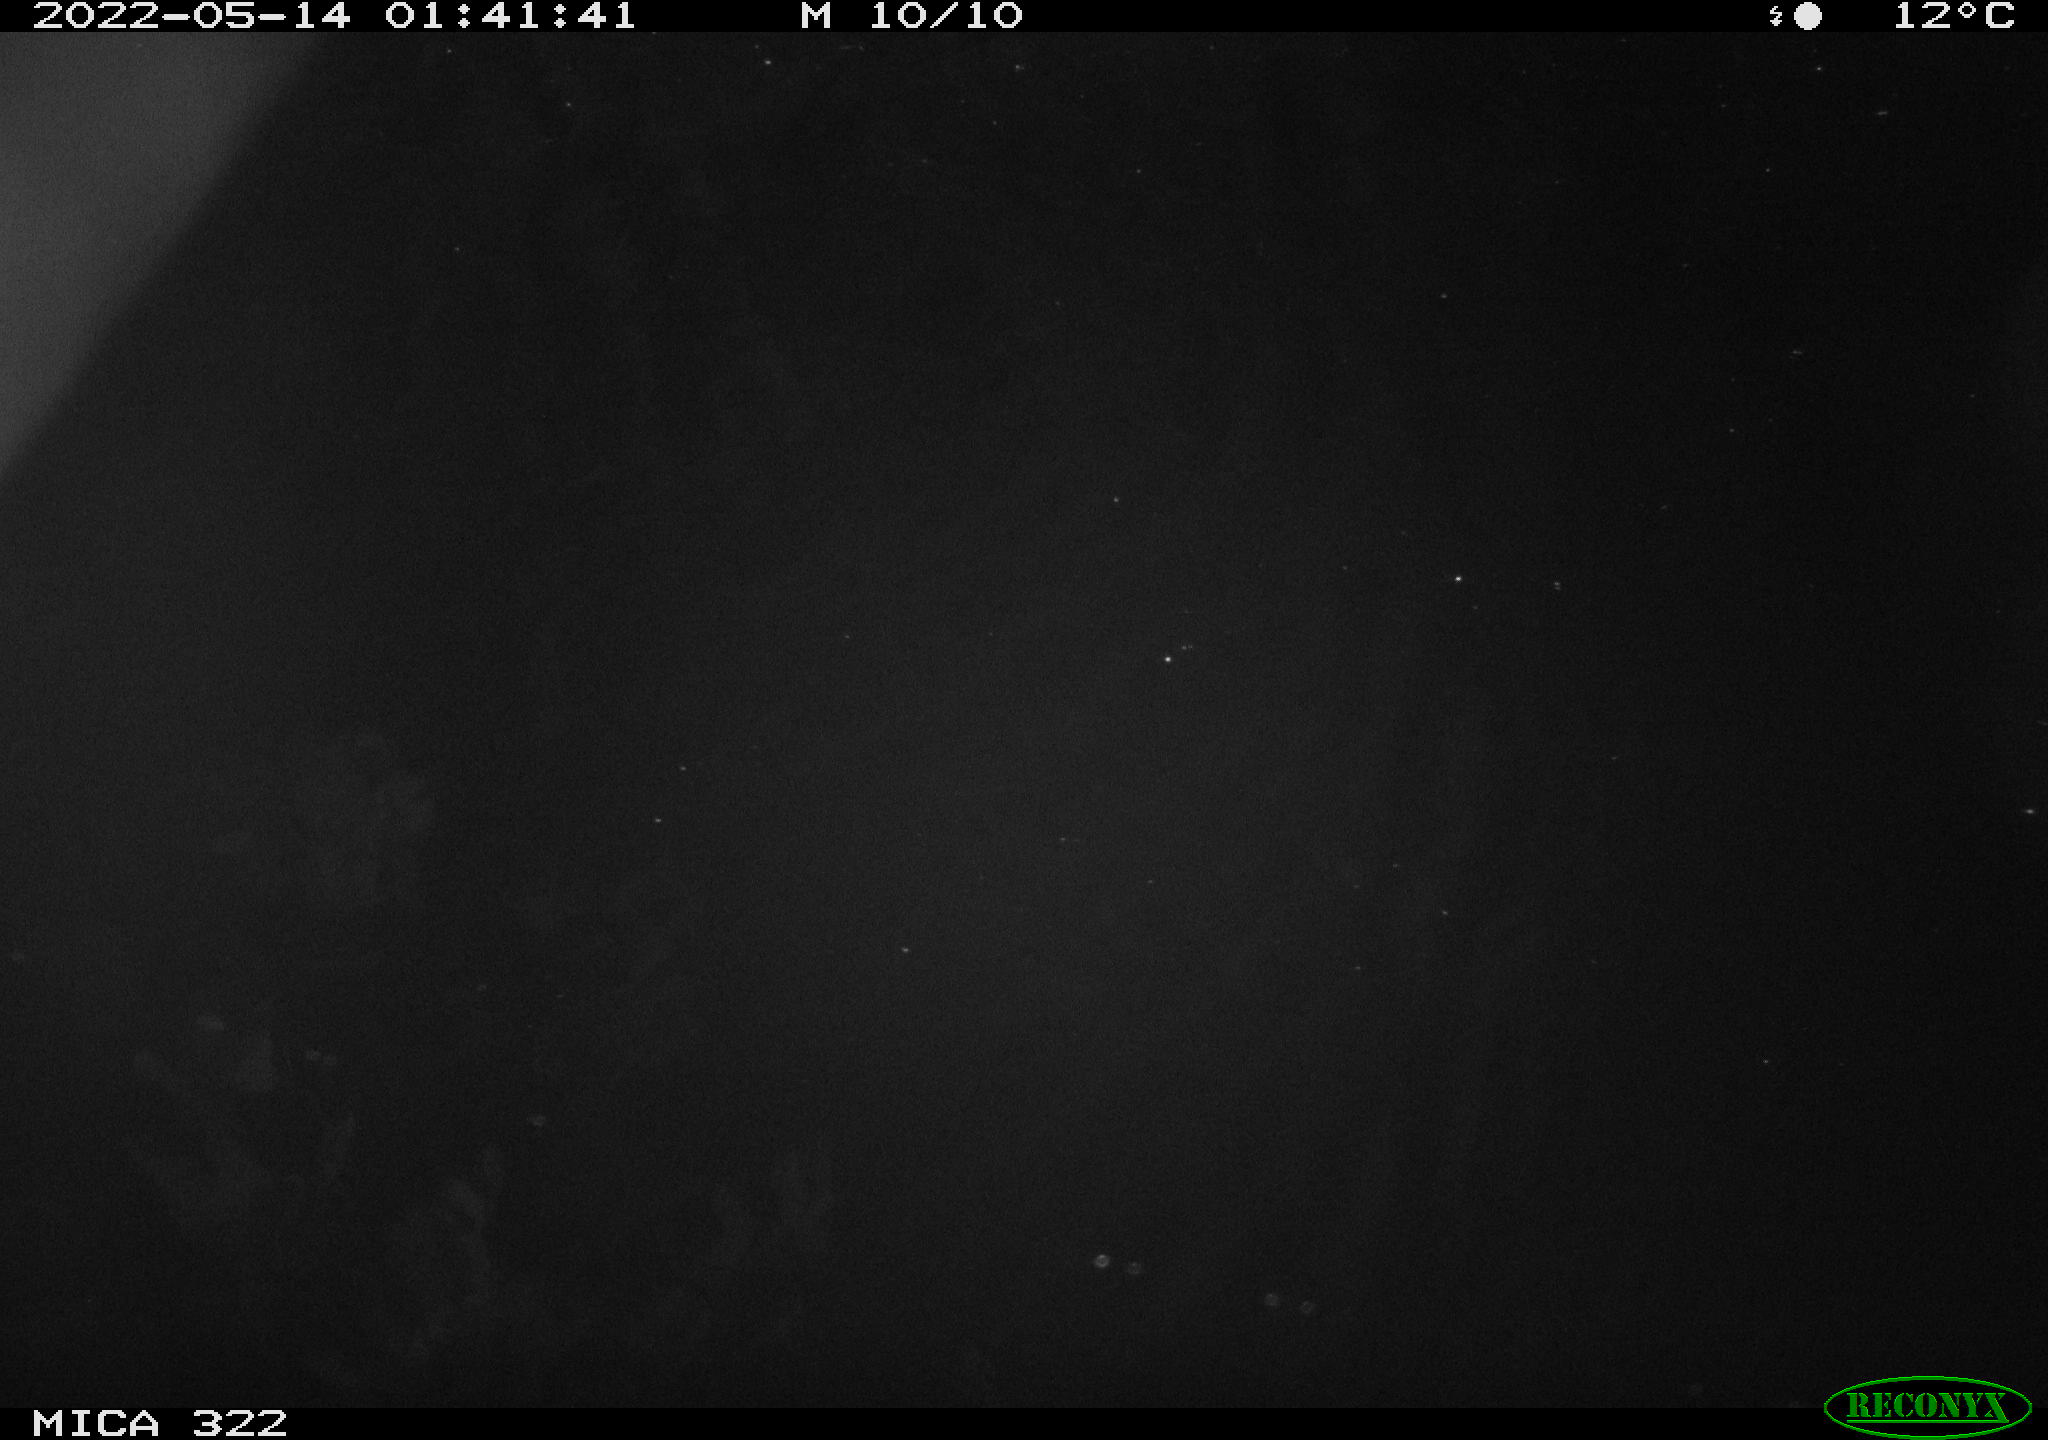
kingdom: Animalia
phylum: Chordata
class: Aves
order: Anseriformes
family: Anatidae
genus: Anas
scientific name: Anas platyrhynchos
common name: Mallard
